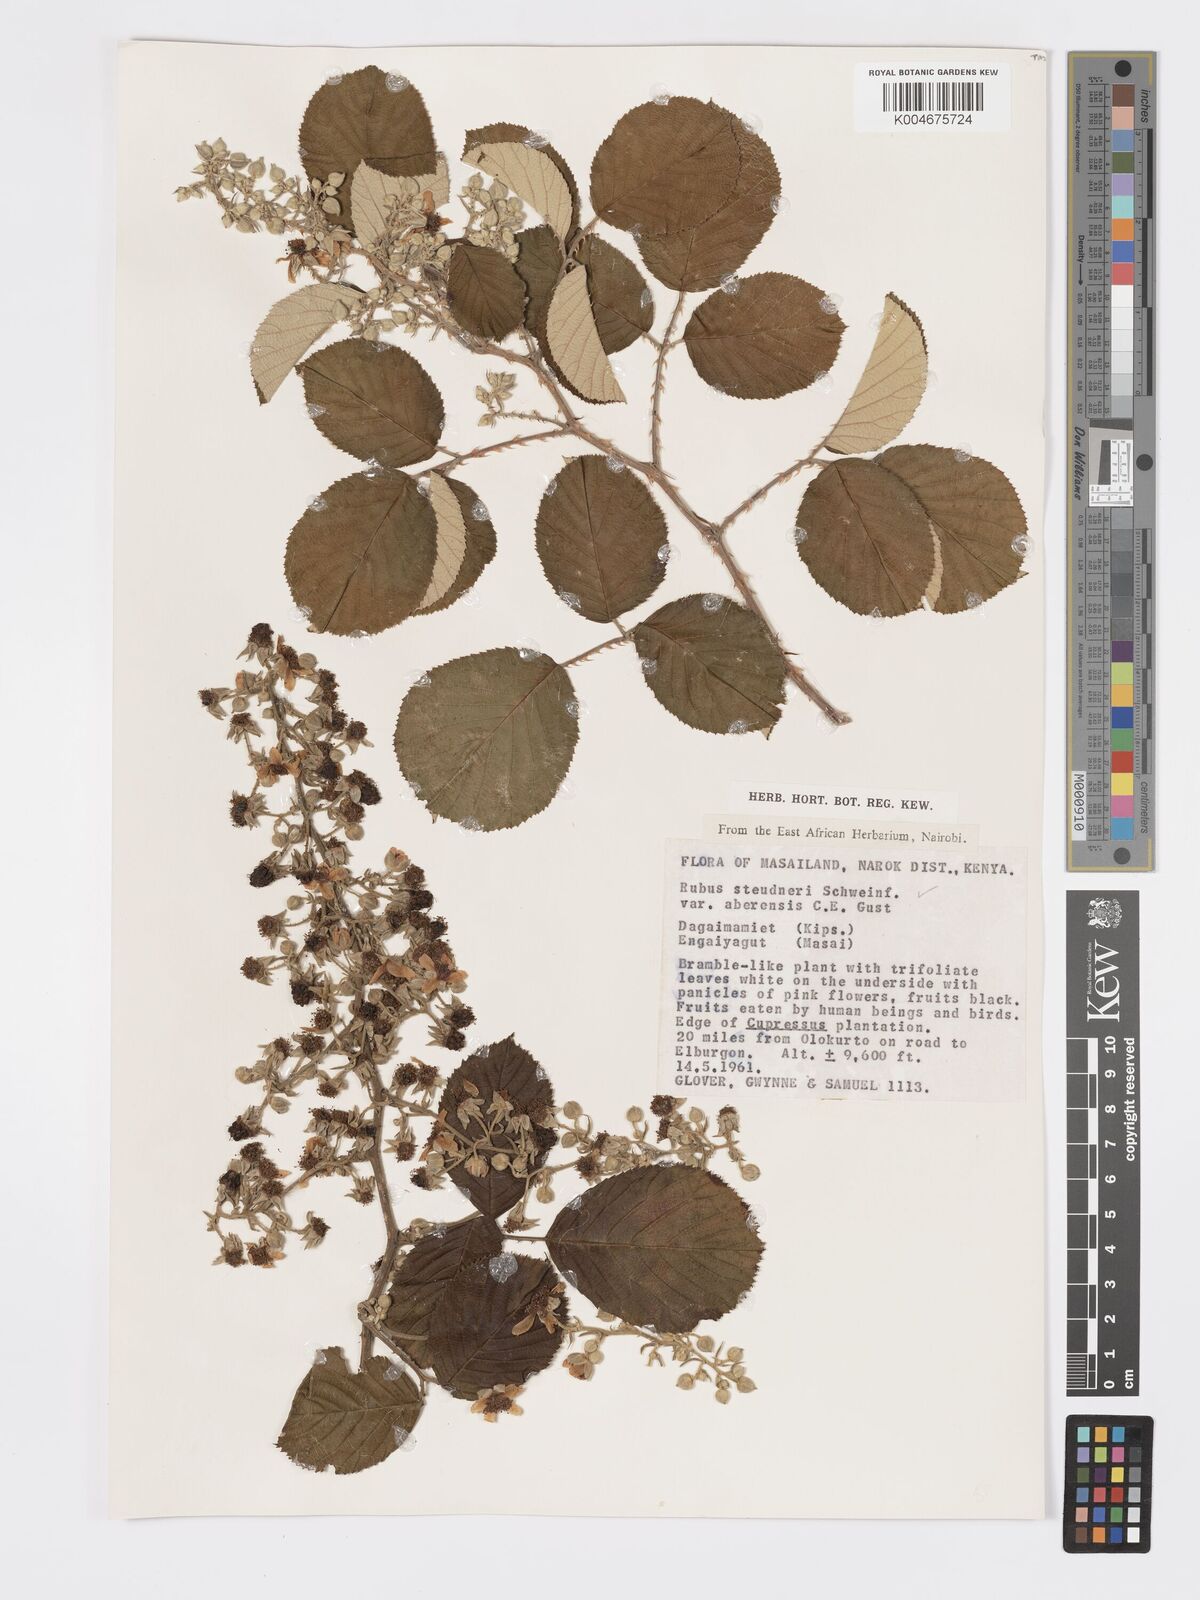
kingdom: Plantae
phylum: Tracheophyta
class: Magnoliopsida
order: Rosales
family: Rosaceae
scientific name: Rosaceae
